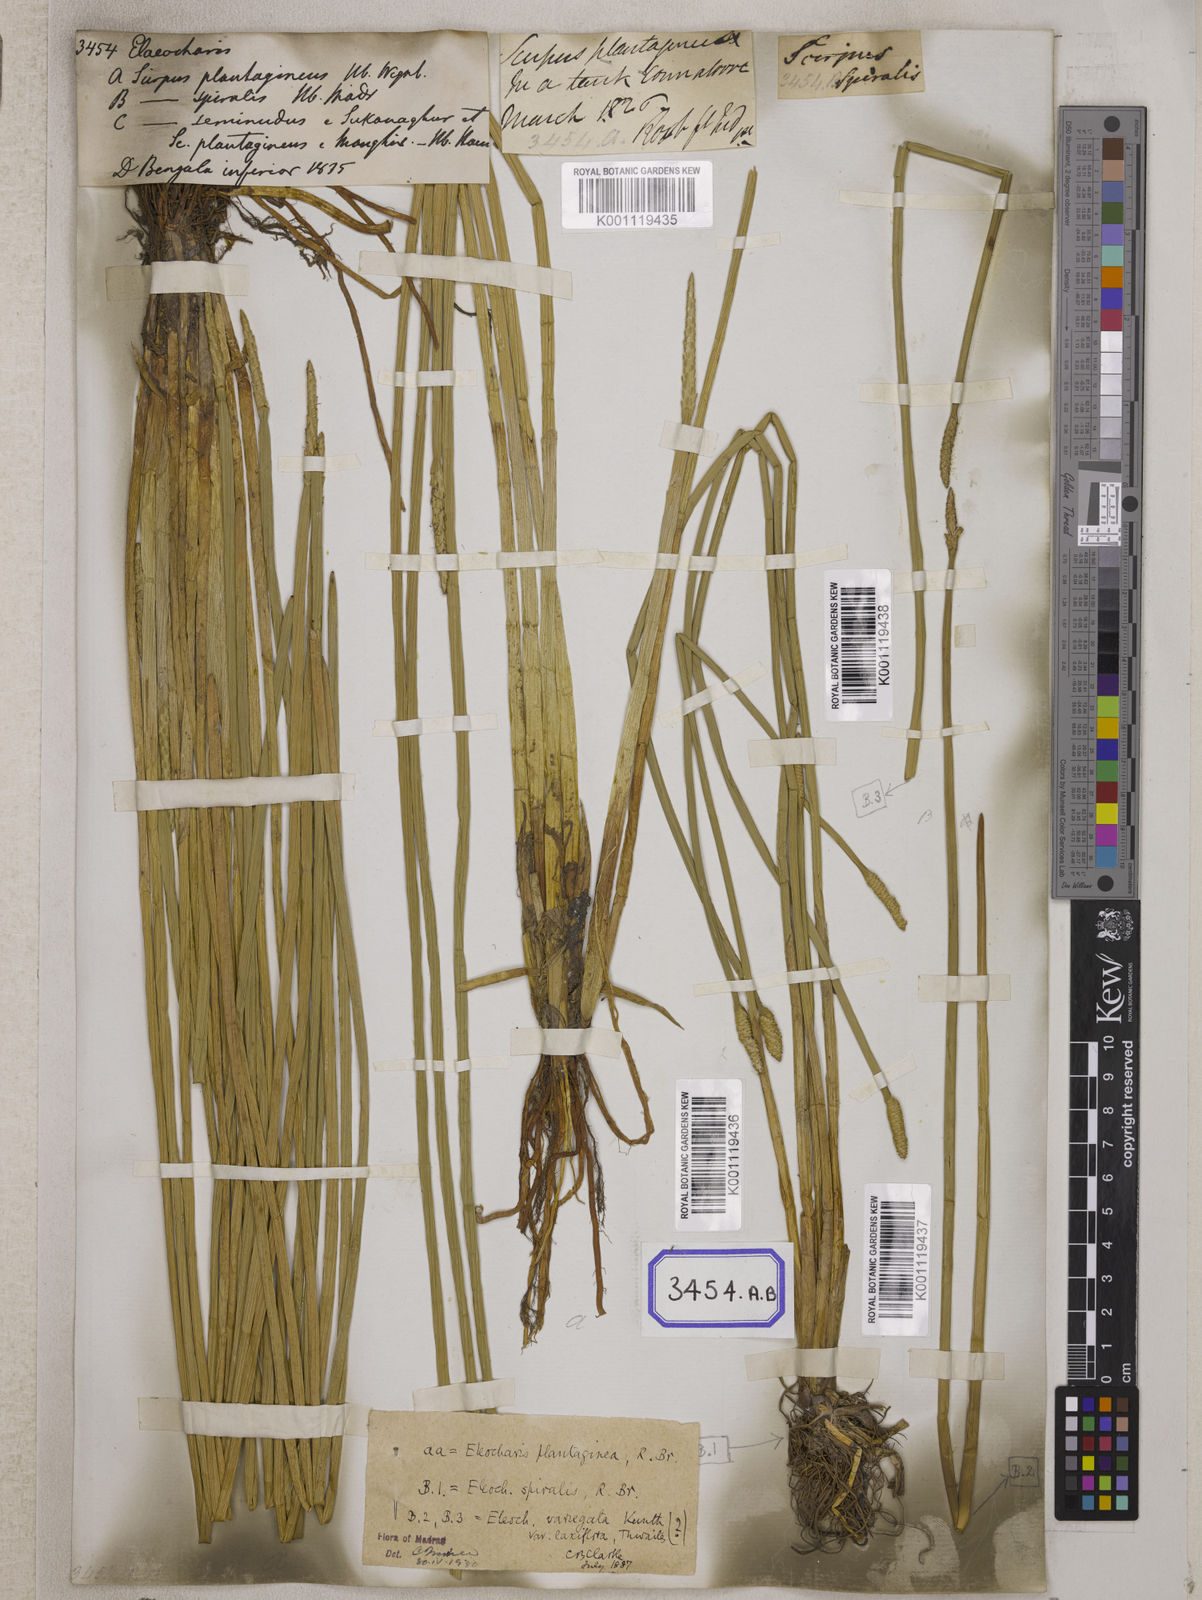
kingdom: Plantae
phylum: Tracheophyta
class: Liliopsida
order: Poales
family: Cyperaceae
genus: Eleocharis
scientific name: Eleocharis
